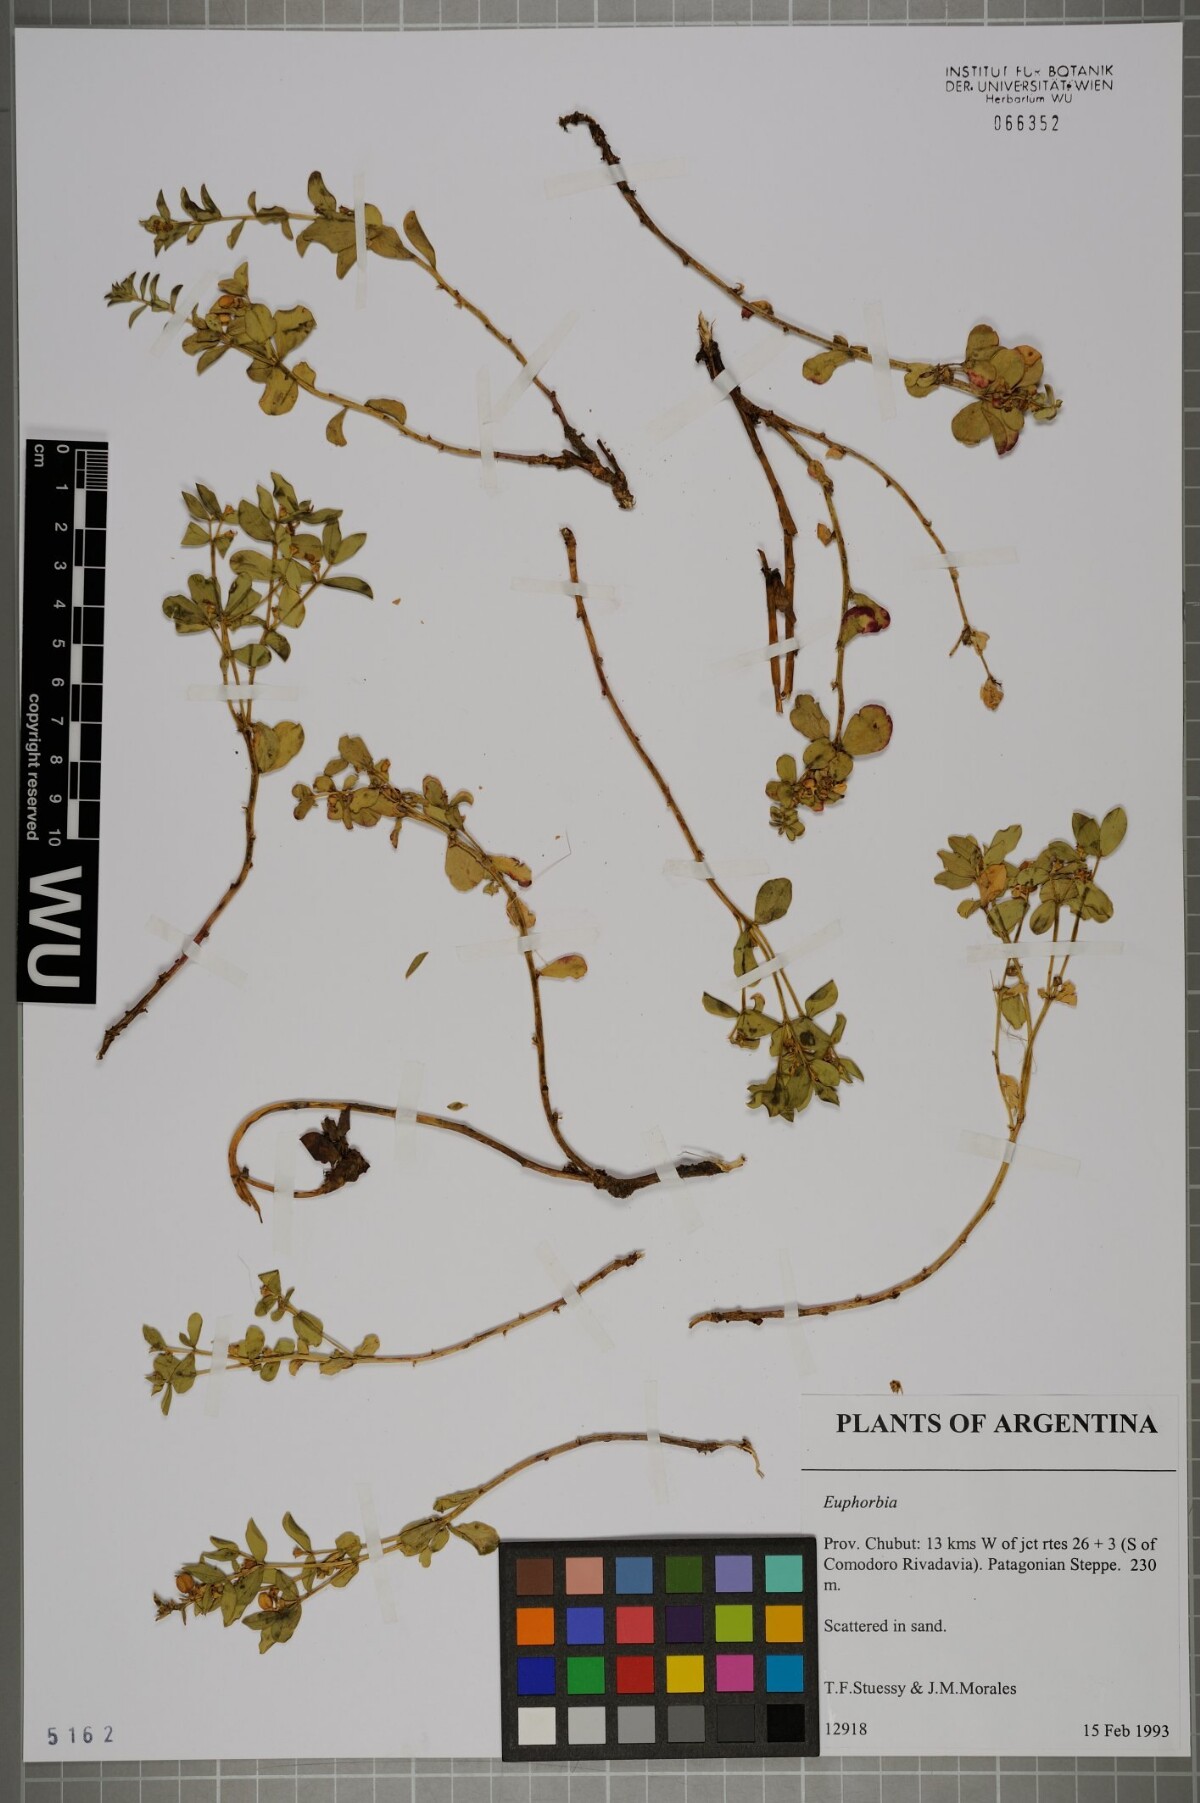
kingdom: Plantae
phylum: Tracheophyta
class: Magnoliopsida
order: Malpighiales
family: Euphorbiaceae
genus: Euphorbia
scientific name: Euphorbia
